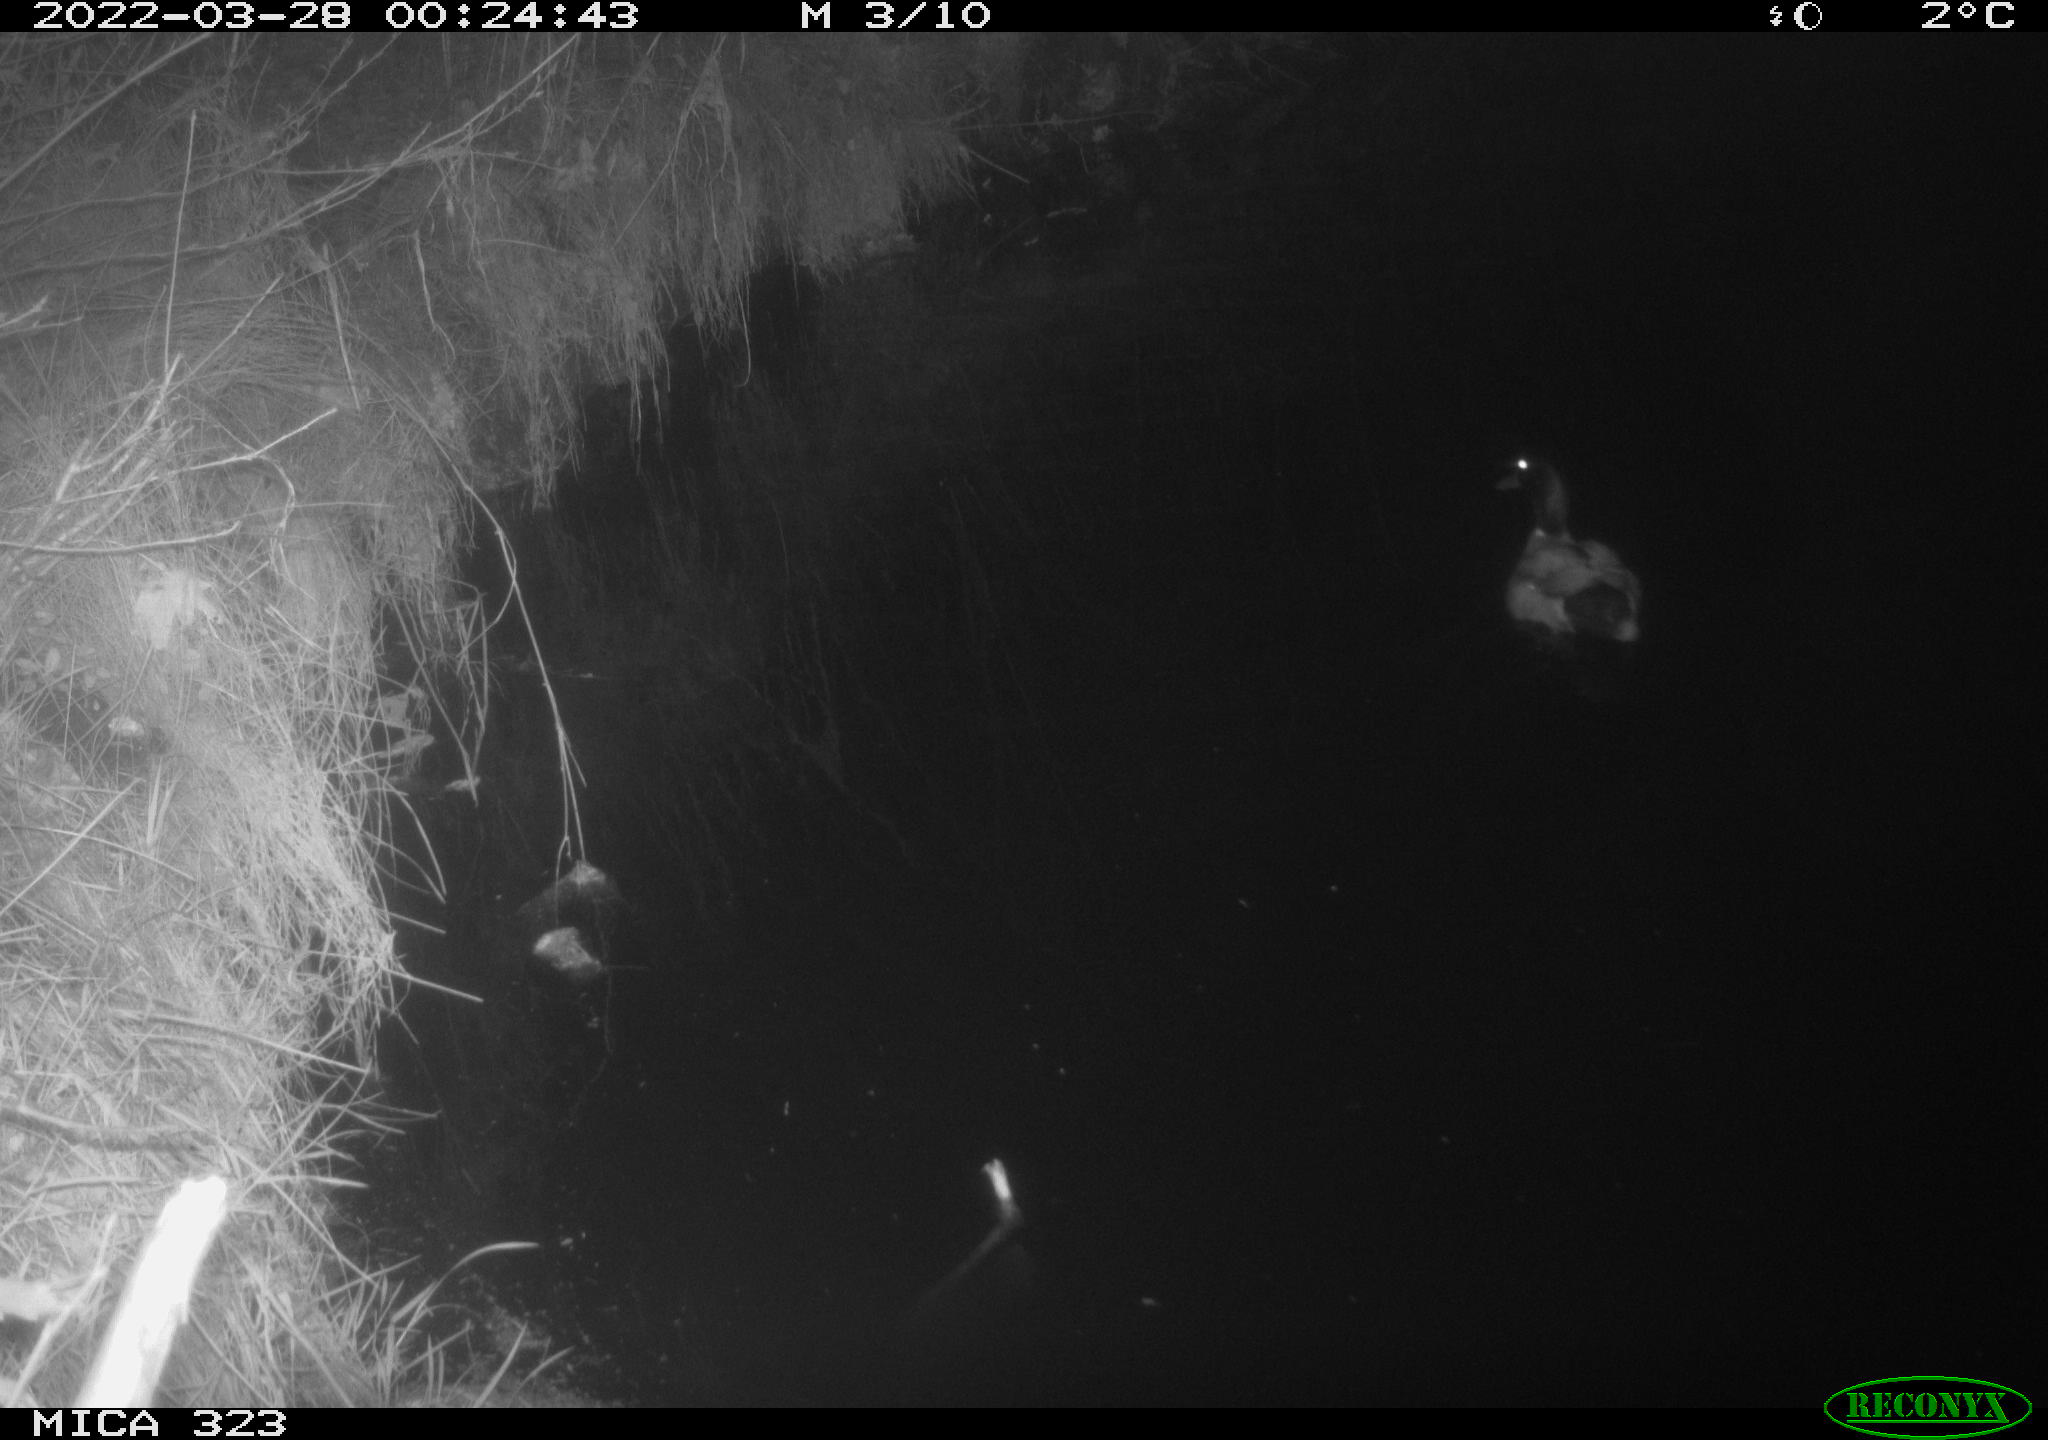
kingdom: Animalia
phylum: Chordata
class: Aves
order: Anseriformes
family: Anatidae
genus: Anas
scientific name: Anas platyrhynchos
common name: Mallard
